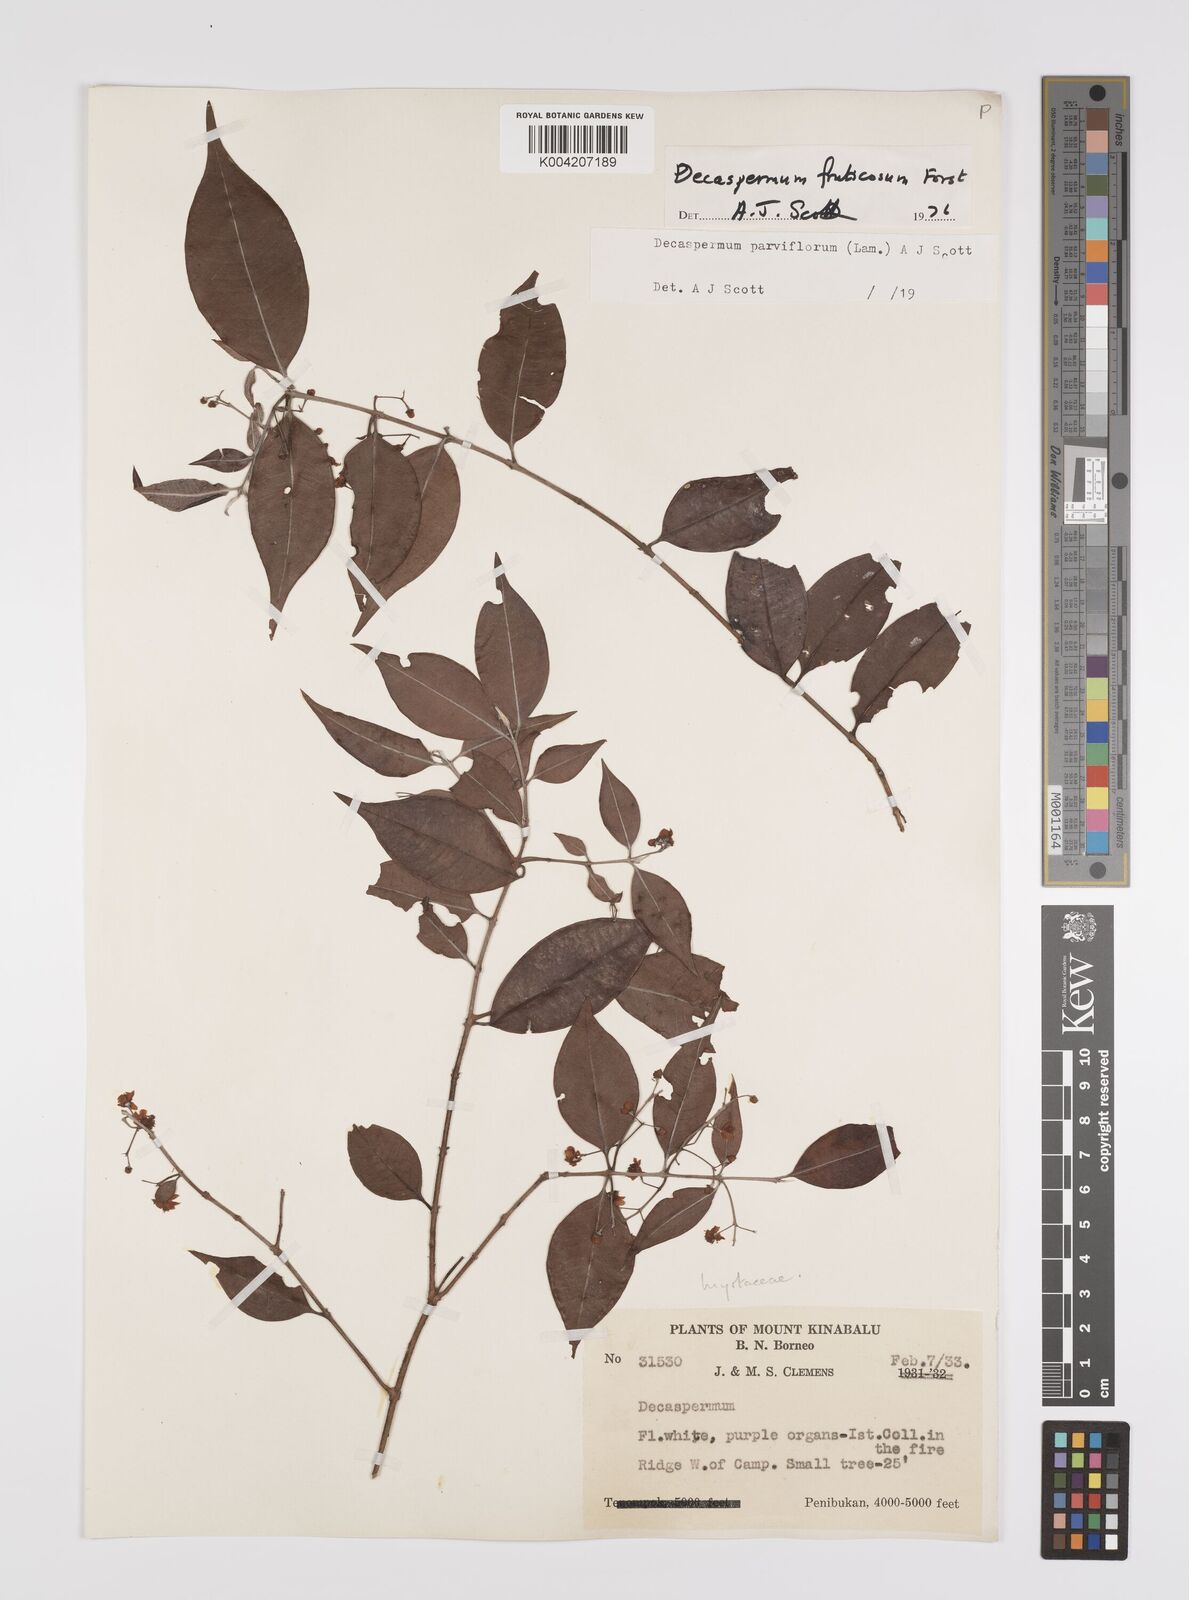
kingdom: Plantae
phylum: Tracheophyta
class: Magnoliopsida
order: Myrtales
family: Myrtaceae
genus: Decaspermum
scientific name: Decaspermum parviflorum
